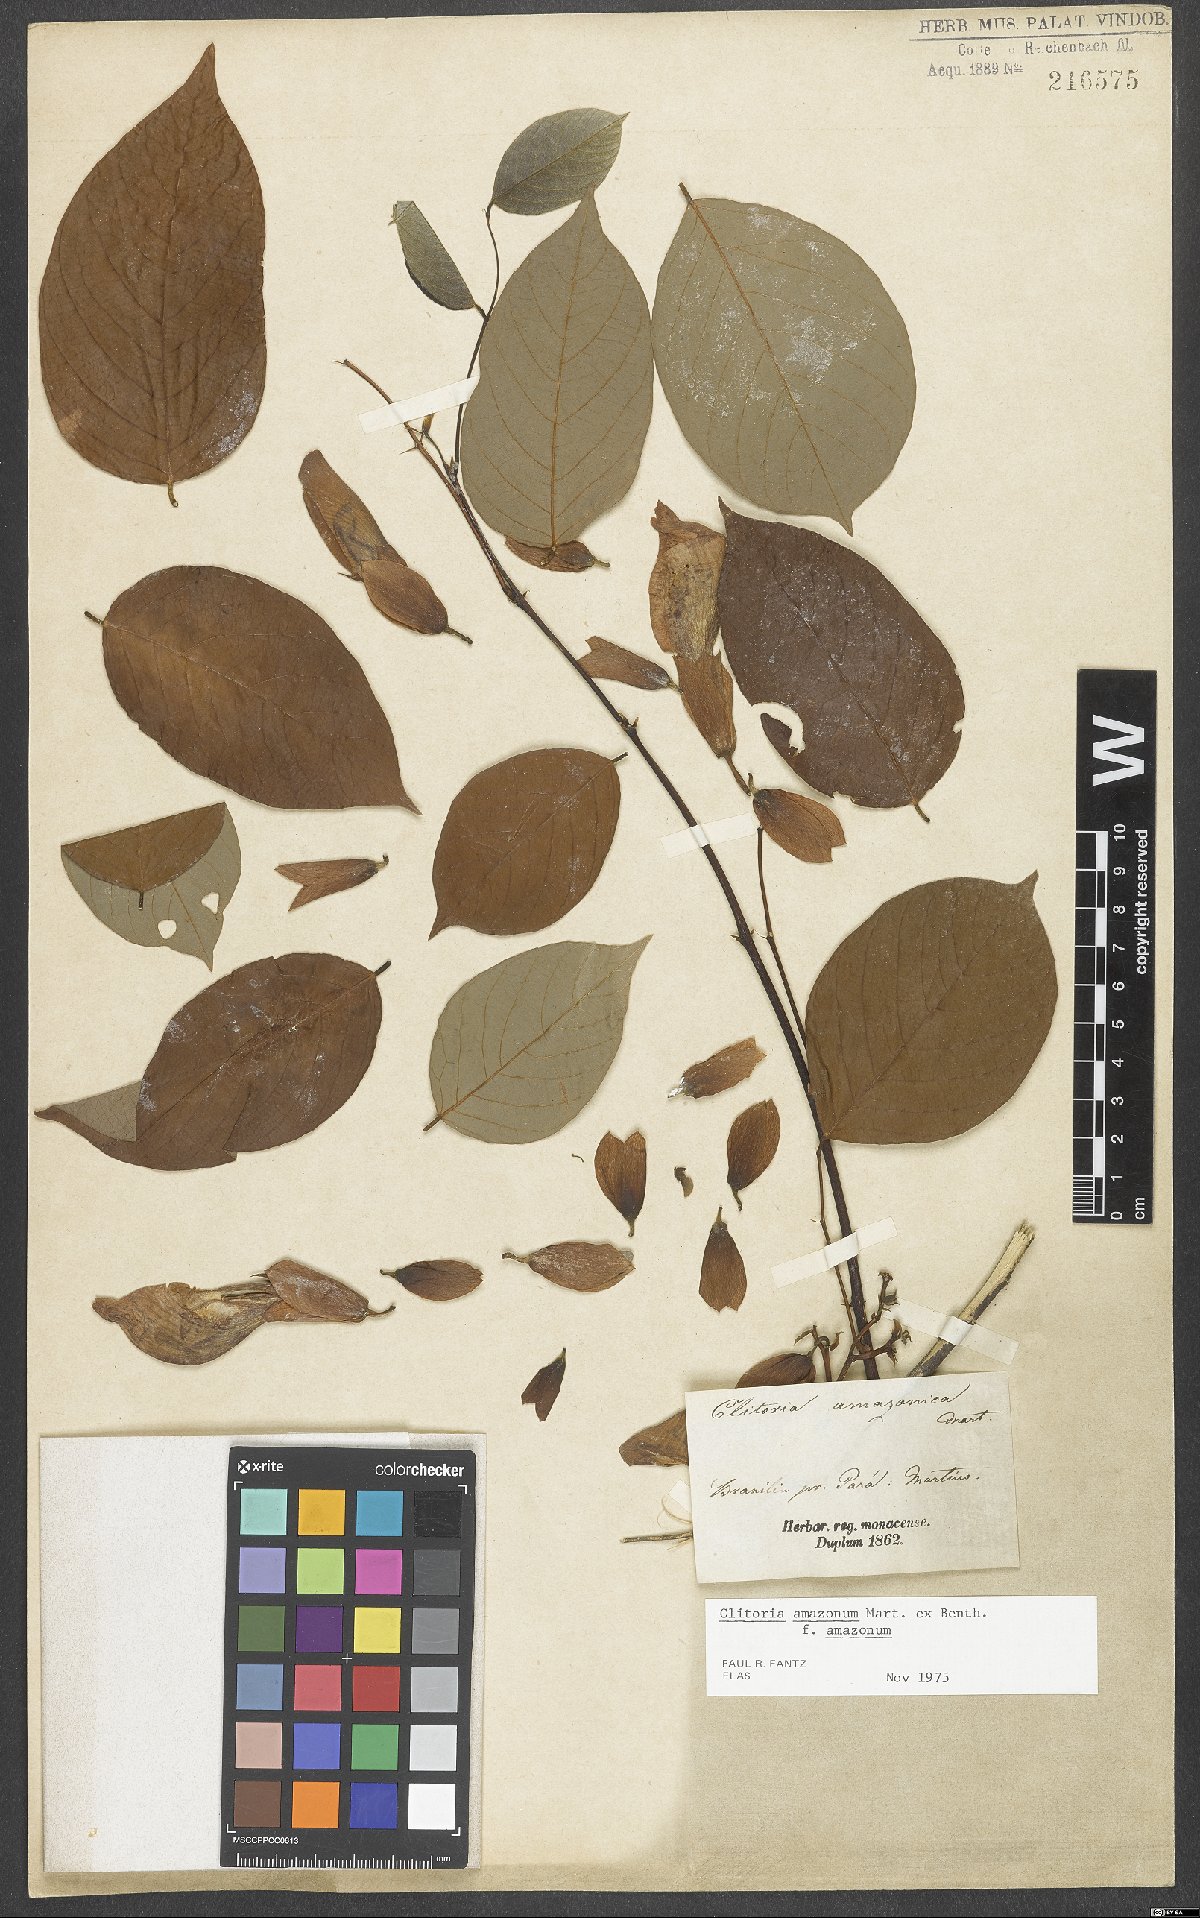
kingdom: Plantae
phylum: Tracheophyta
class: Magnoliopsida
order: Fabales
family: Fabaceae
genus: Clitoria
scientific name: Clitoria amazonum
